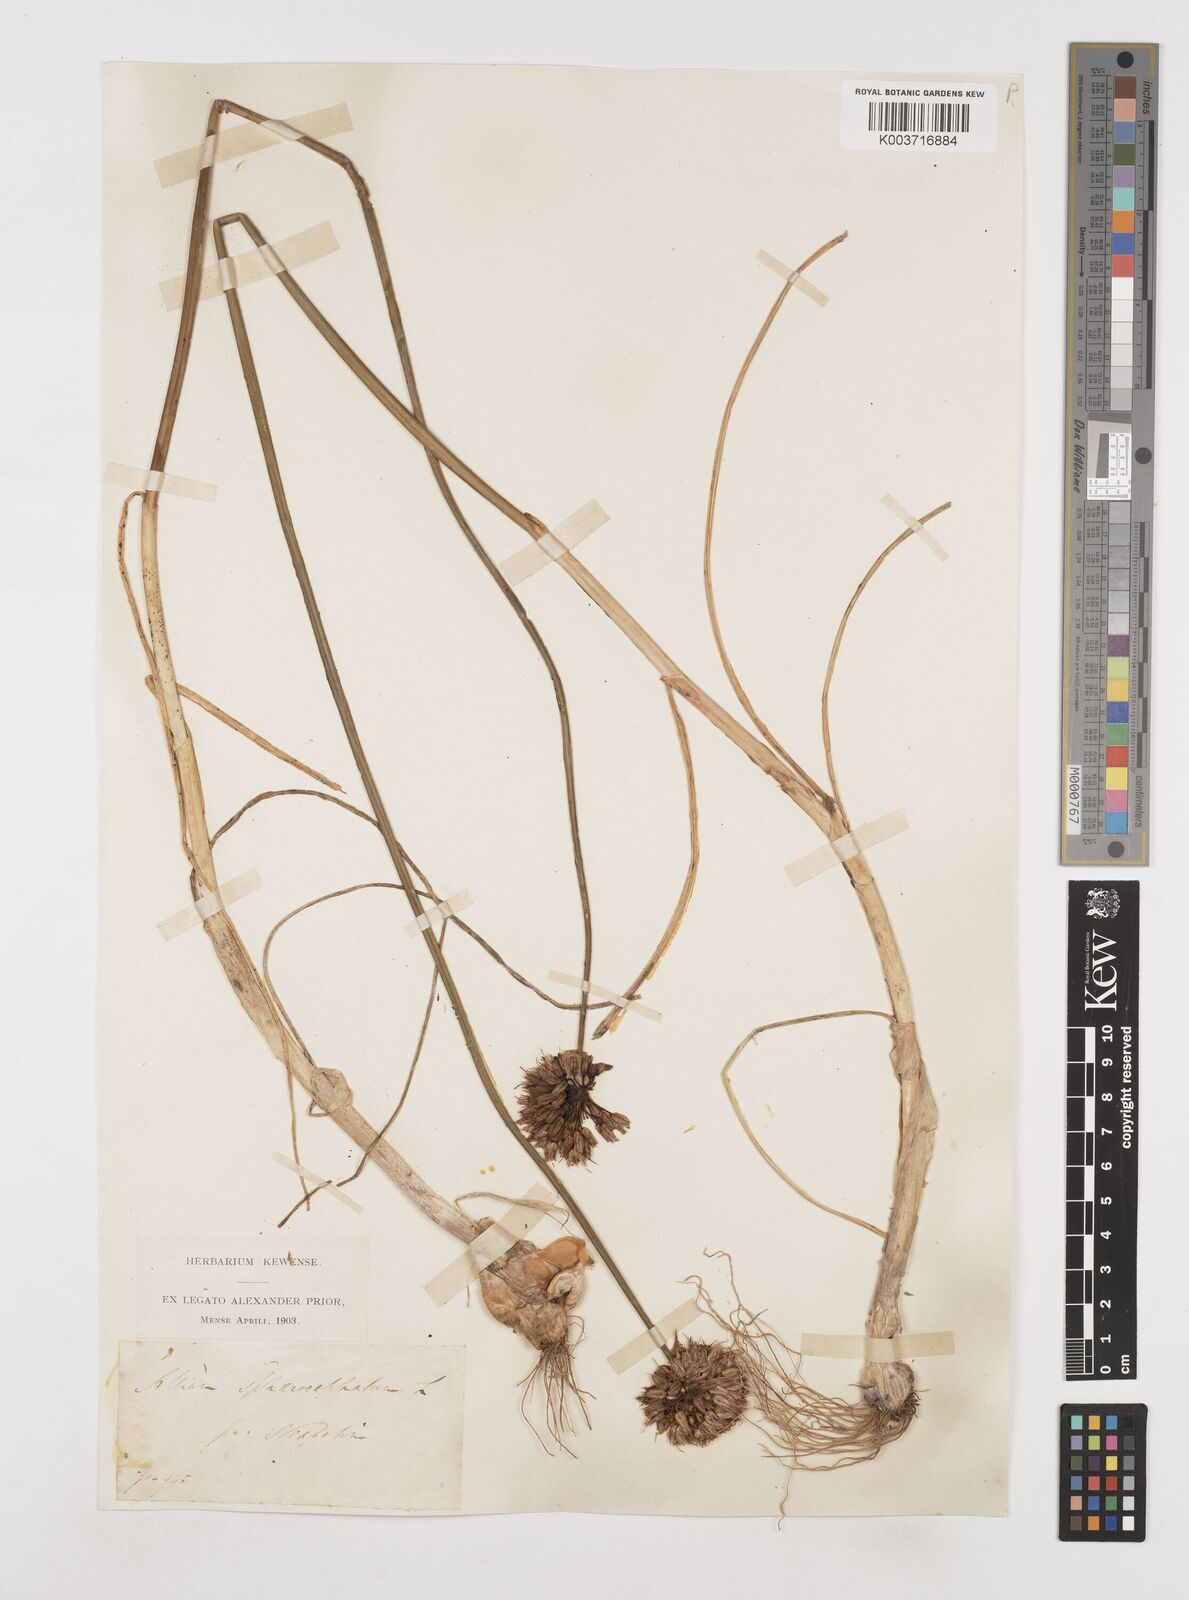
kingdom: Plantae
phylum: Tracheophyta
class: Liliopsida
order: Asparagales
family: Amaryllidaceae
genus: Allium
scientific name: Allium sphaerocephalon
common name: Round-headed leek
